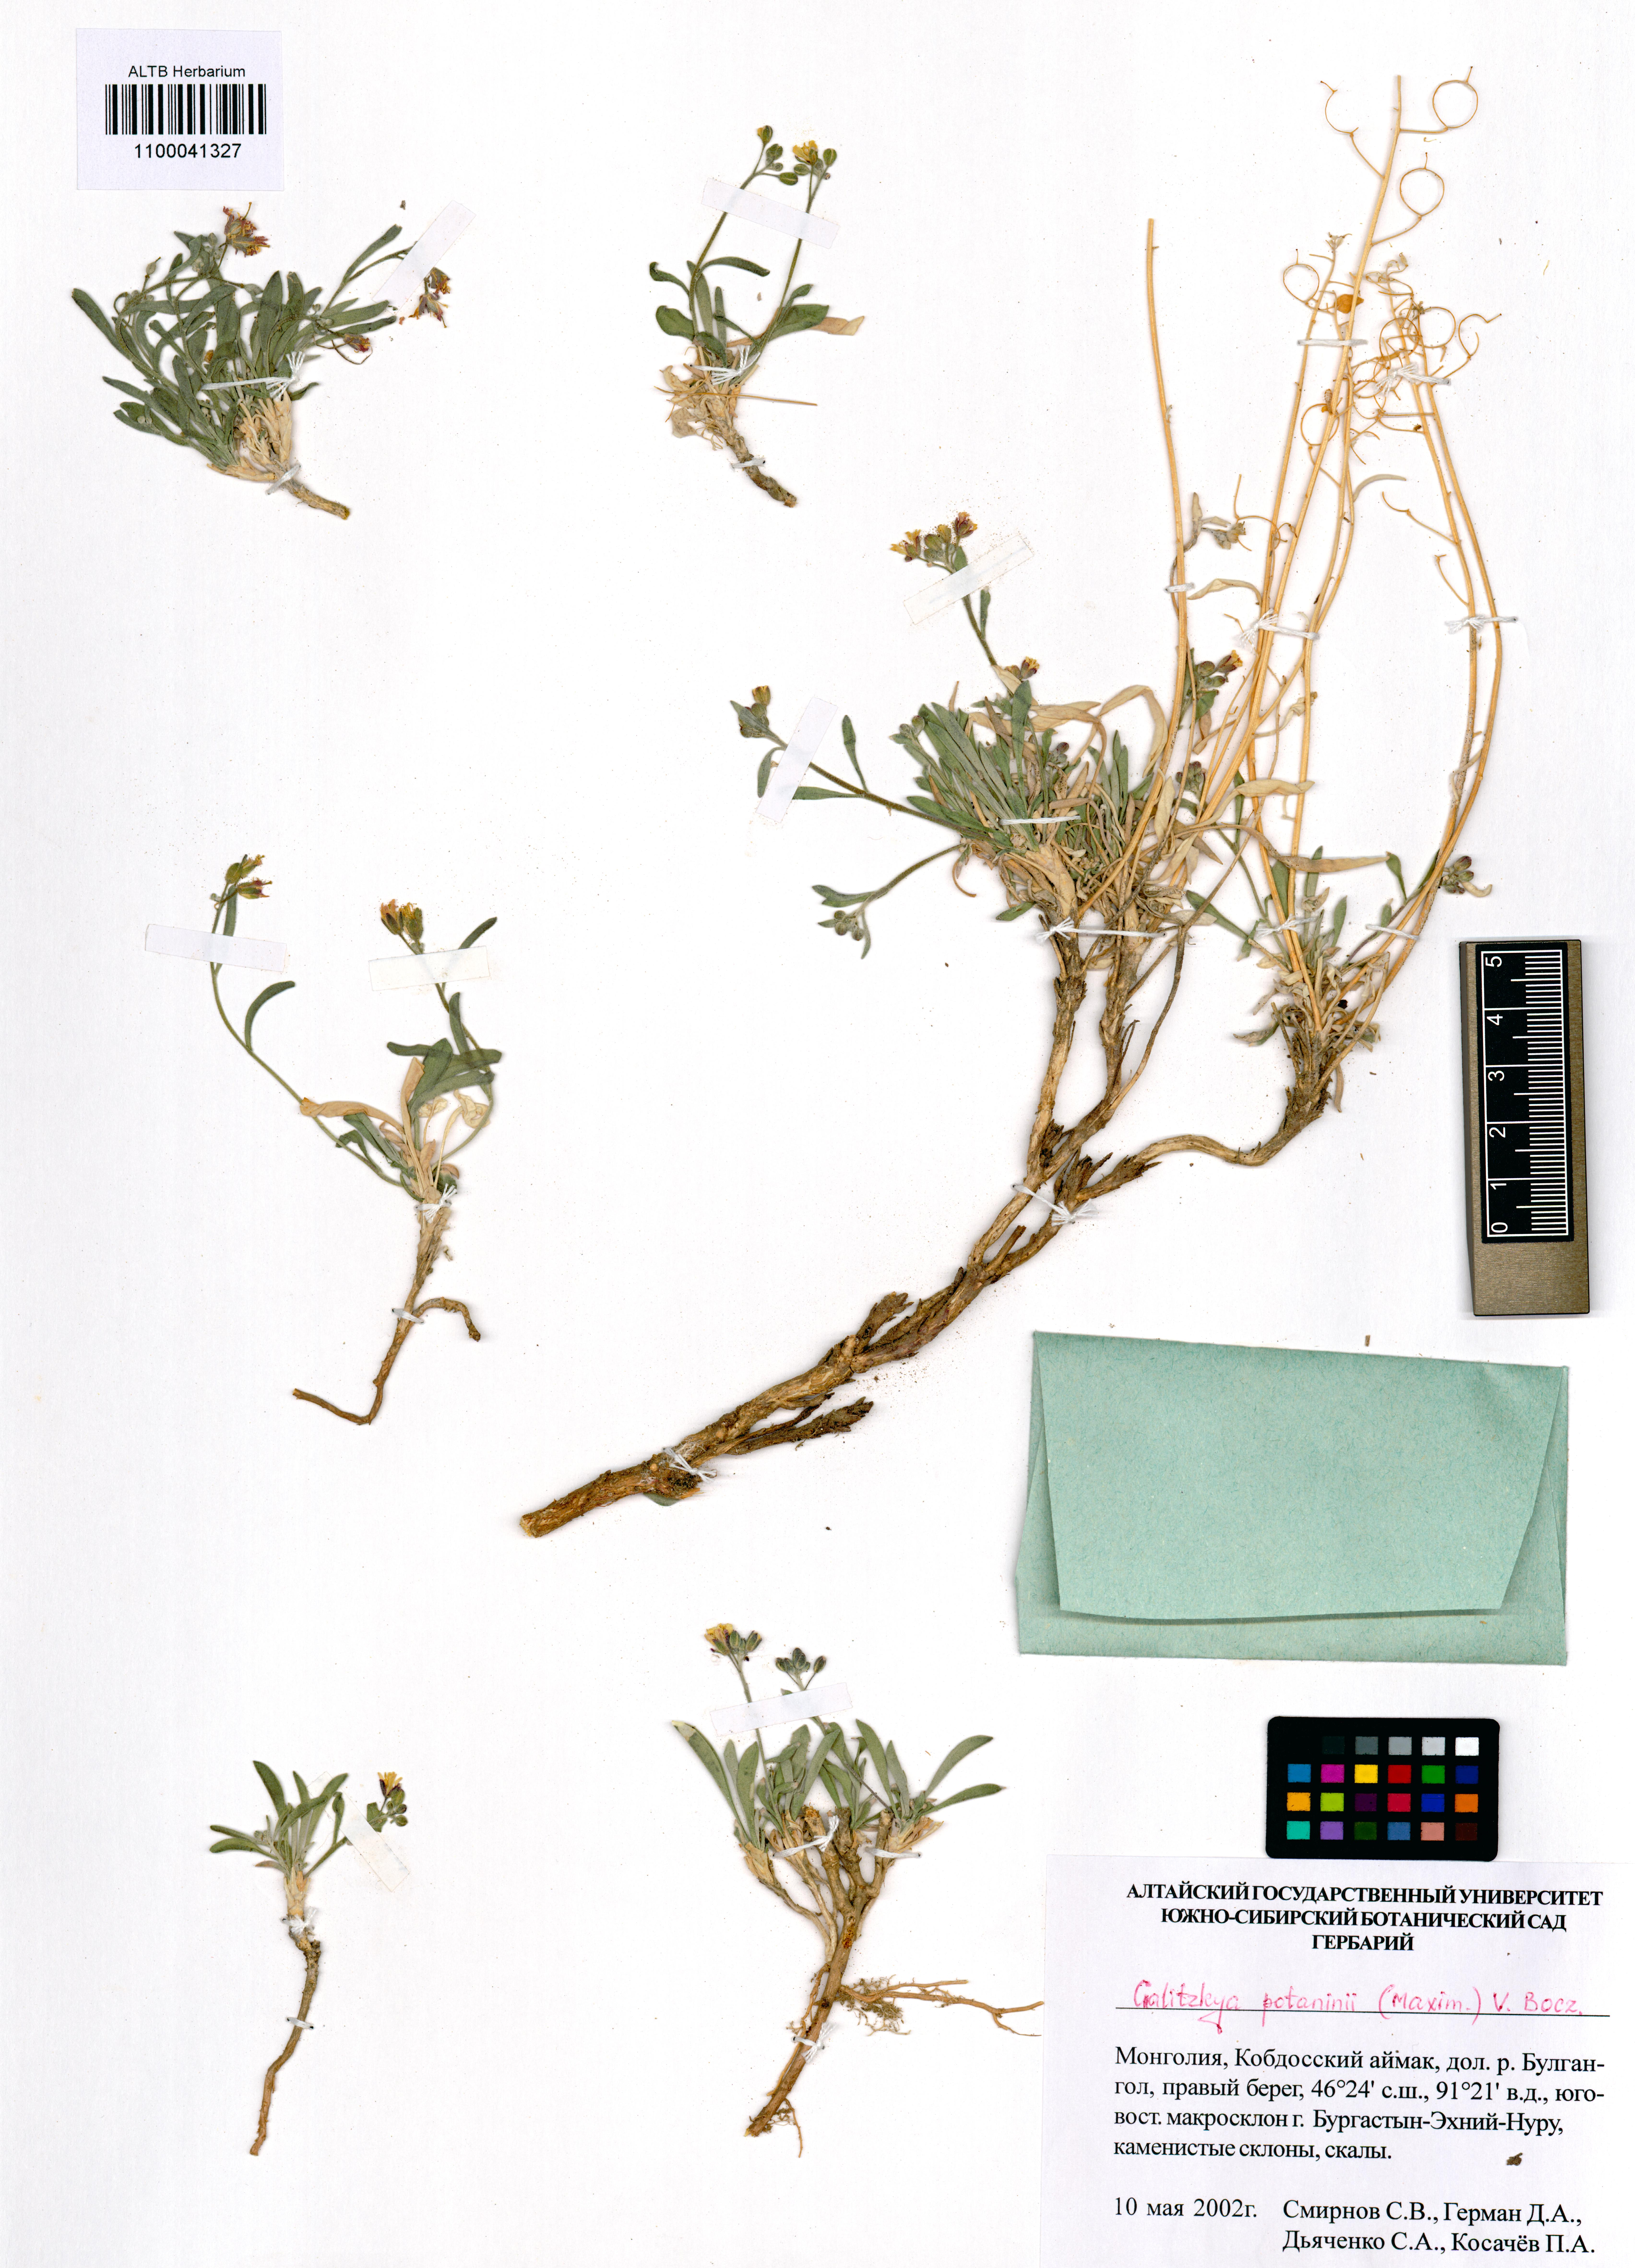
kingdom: Plantae
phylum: Tracheophyta
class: Magnoliopsida
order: Brassicales
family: Brassicaceae
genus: Galitzkya
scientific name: Galitzkya potaninii
